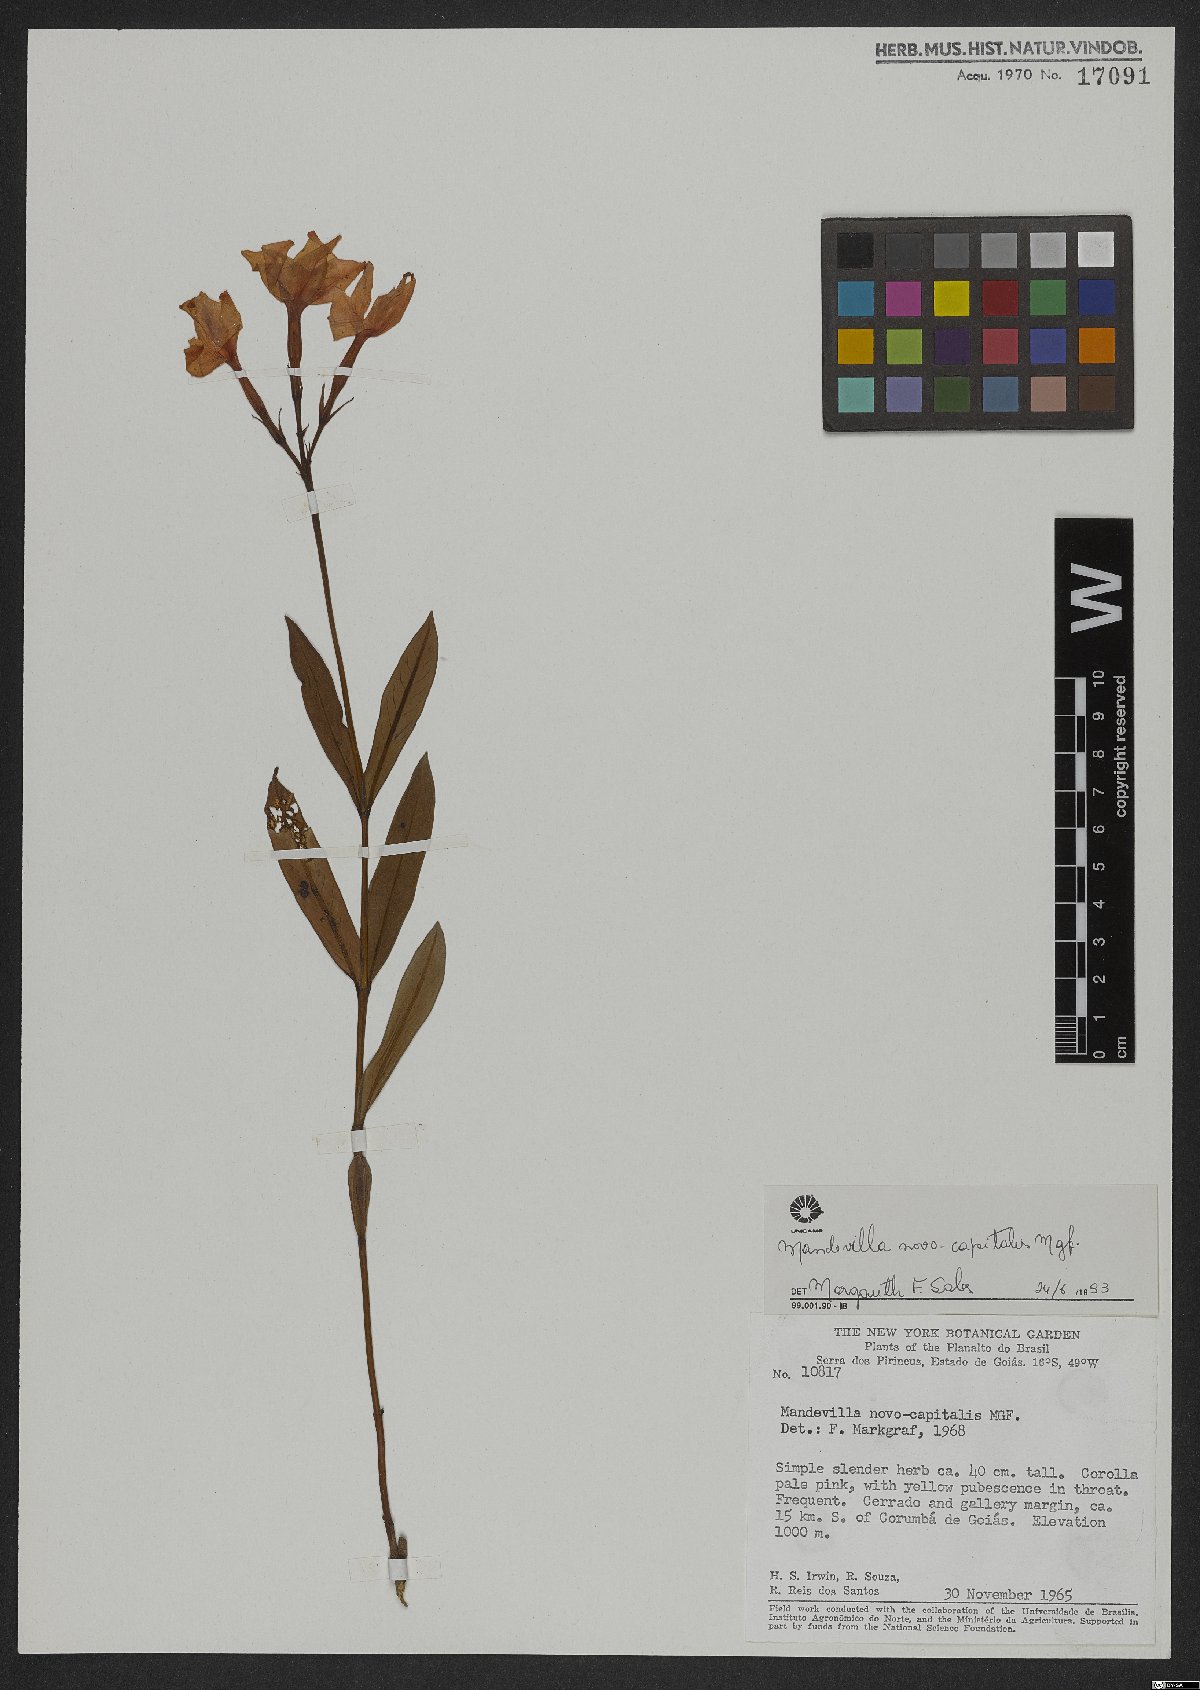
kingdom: Plantae
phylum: Tracheophyta
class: Magnoliopsida
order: Gentianales
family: Apocynaceae
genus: Mandevilla
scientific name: Mandevilla novocapitalis
